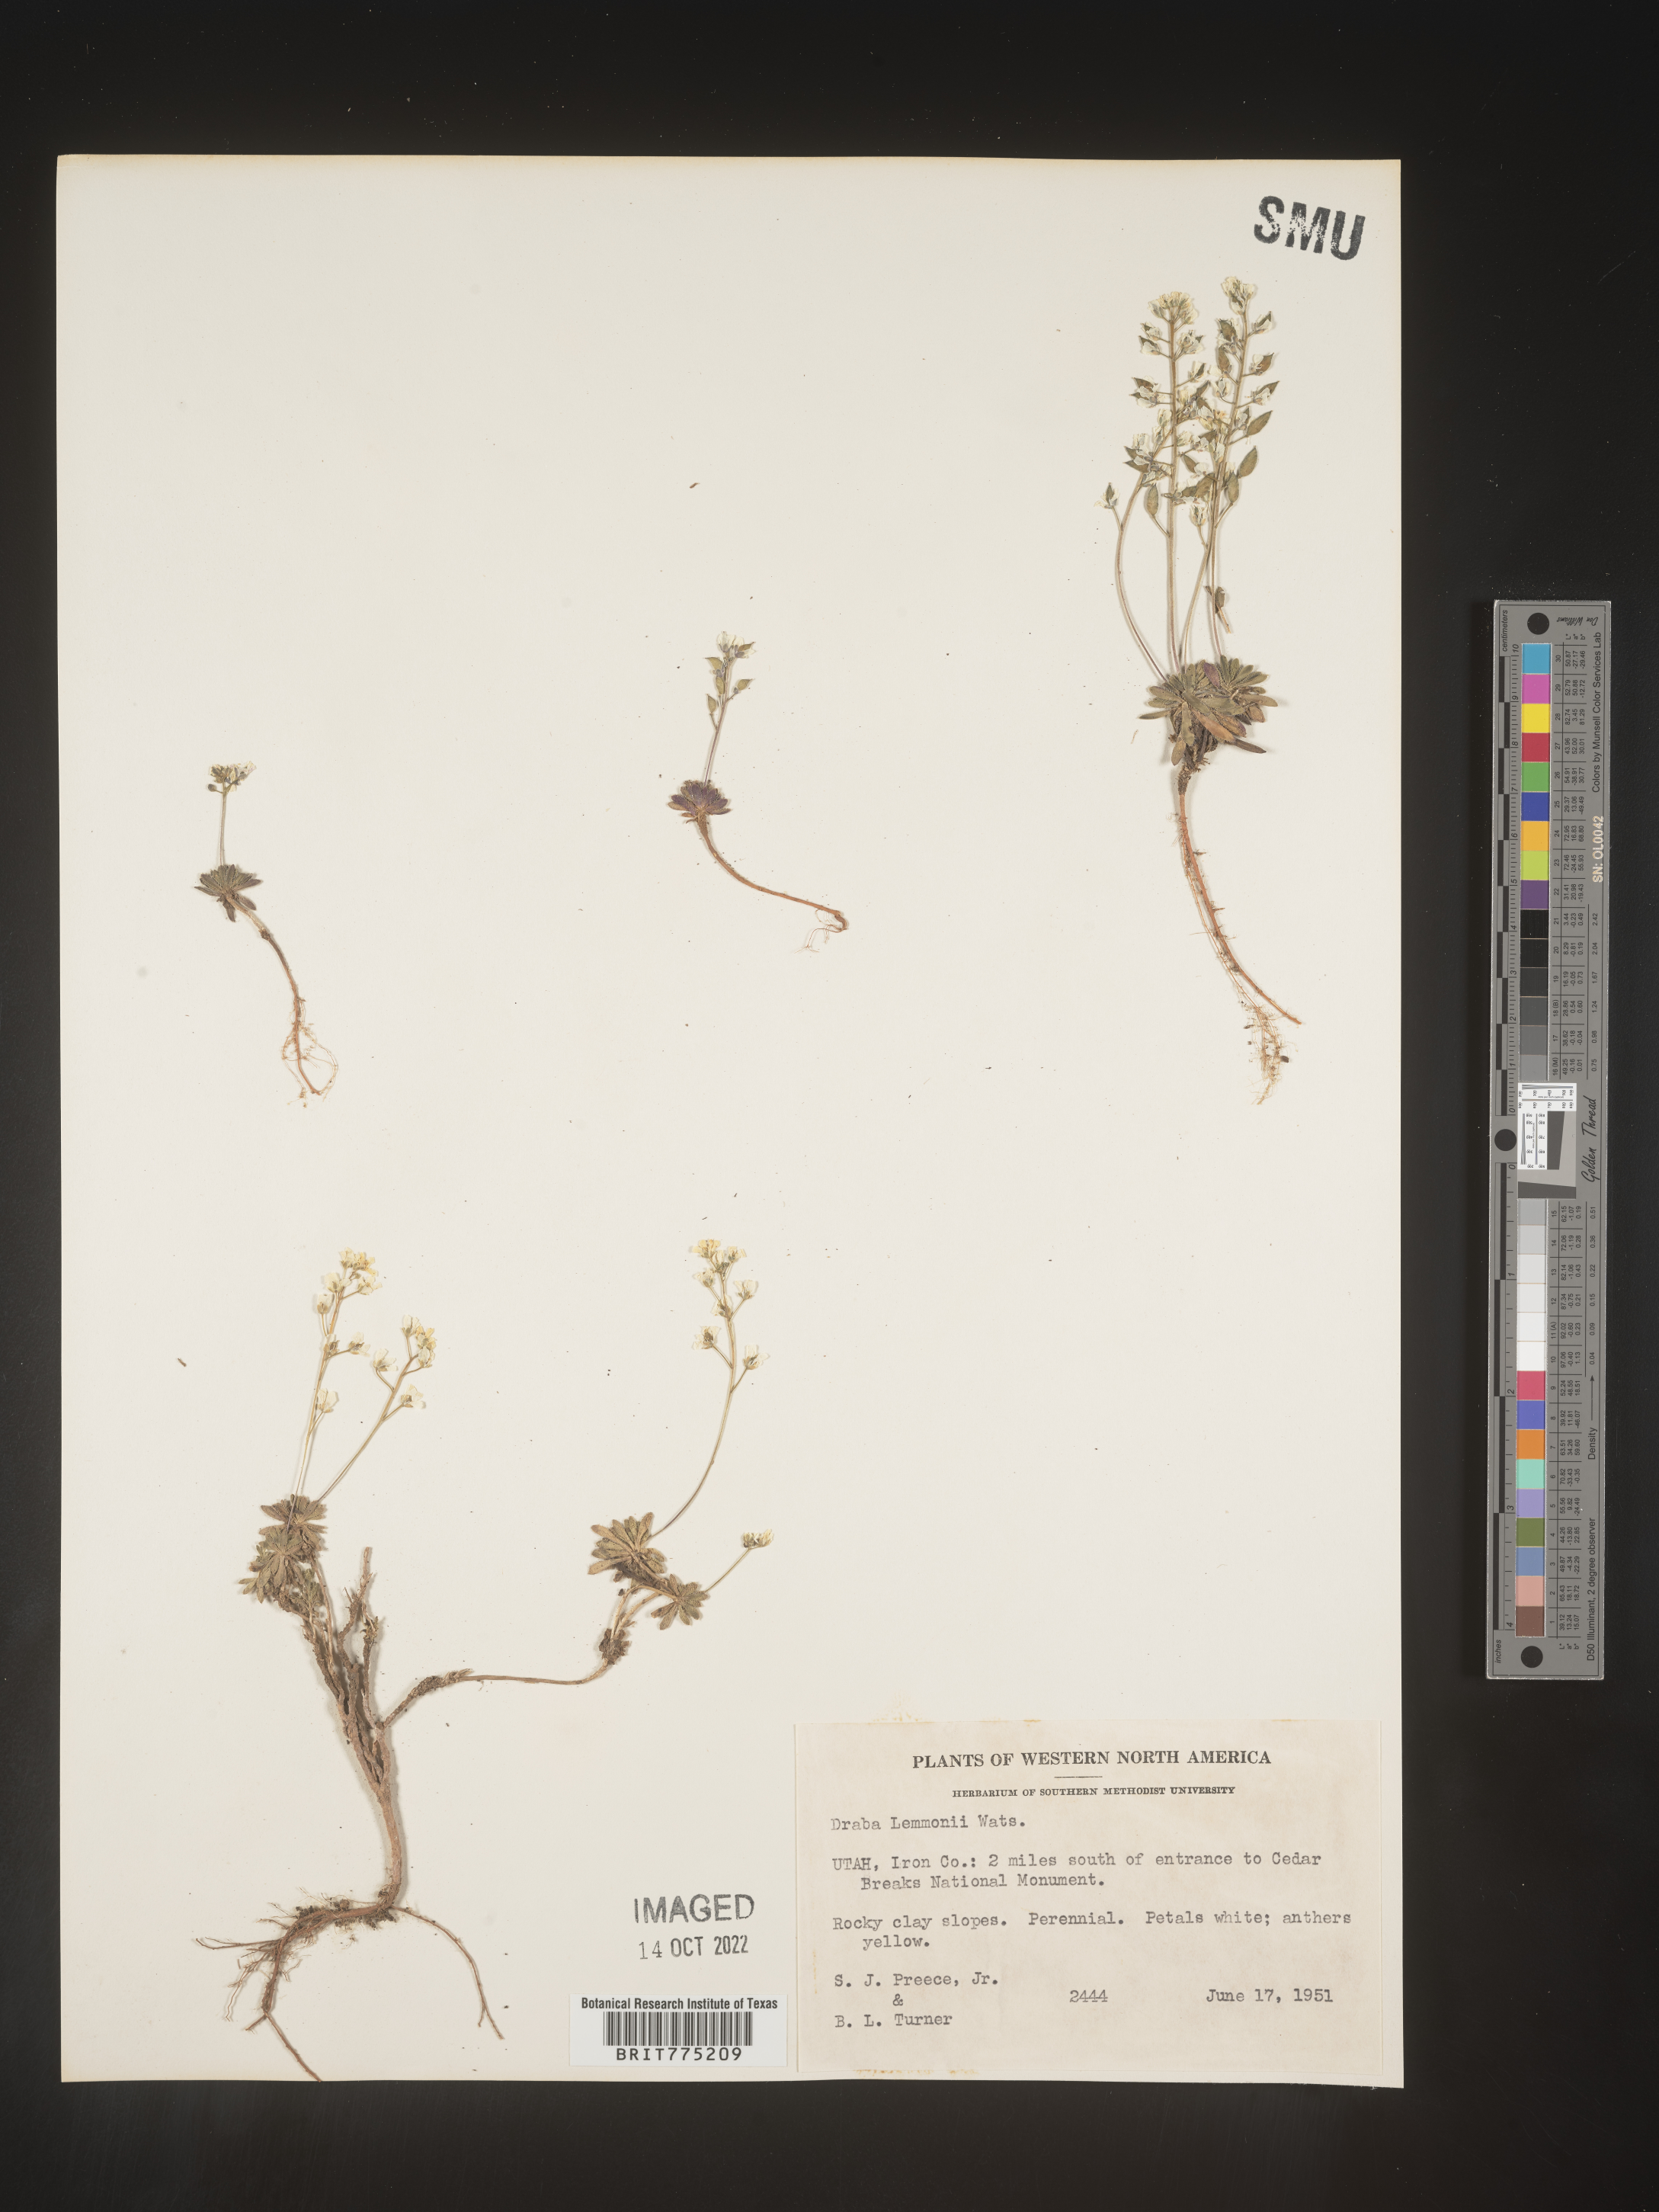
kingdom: Plantae
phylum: Tracheophyta
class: Magnoliopsida
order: Brassicales
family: Brassicaceae
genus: Draba
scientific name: Draba
